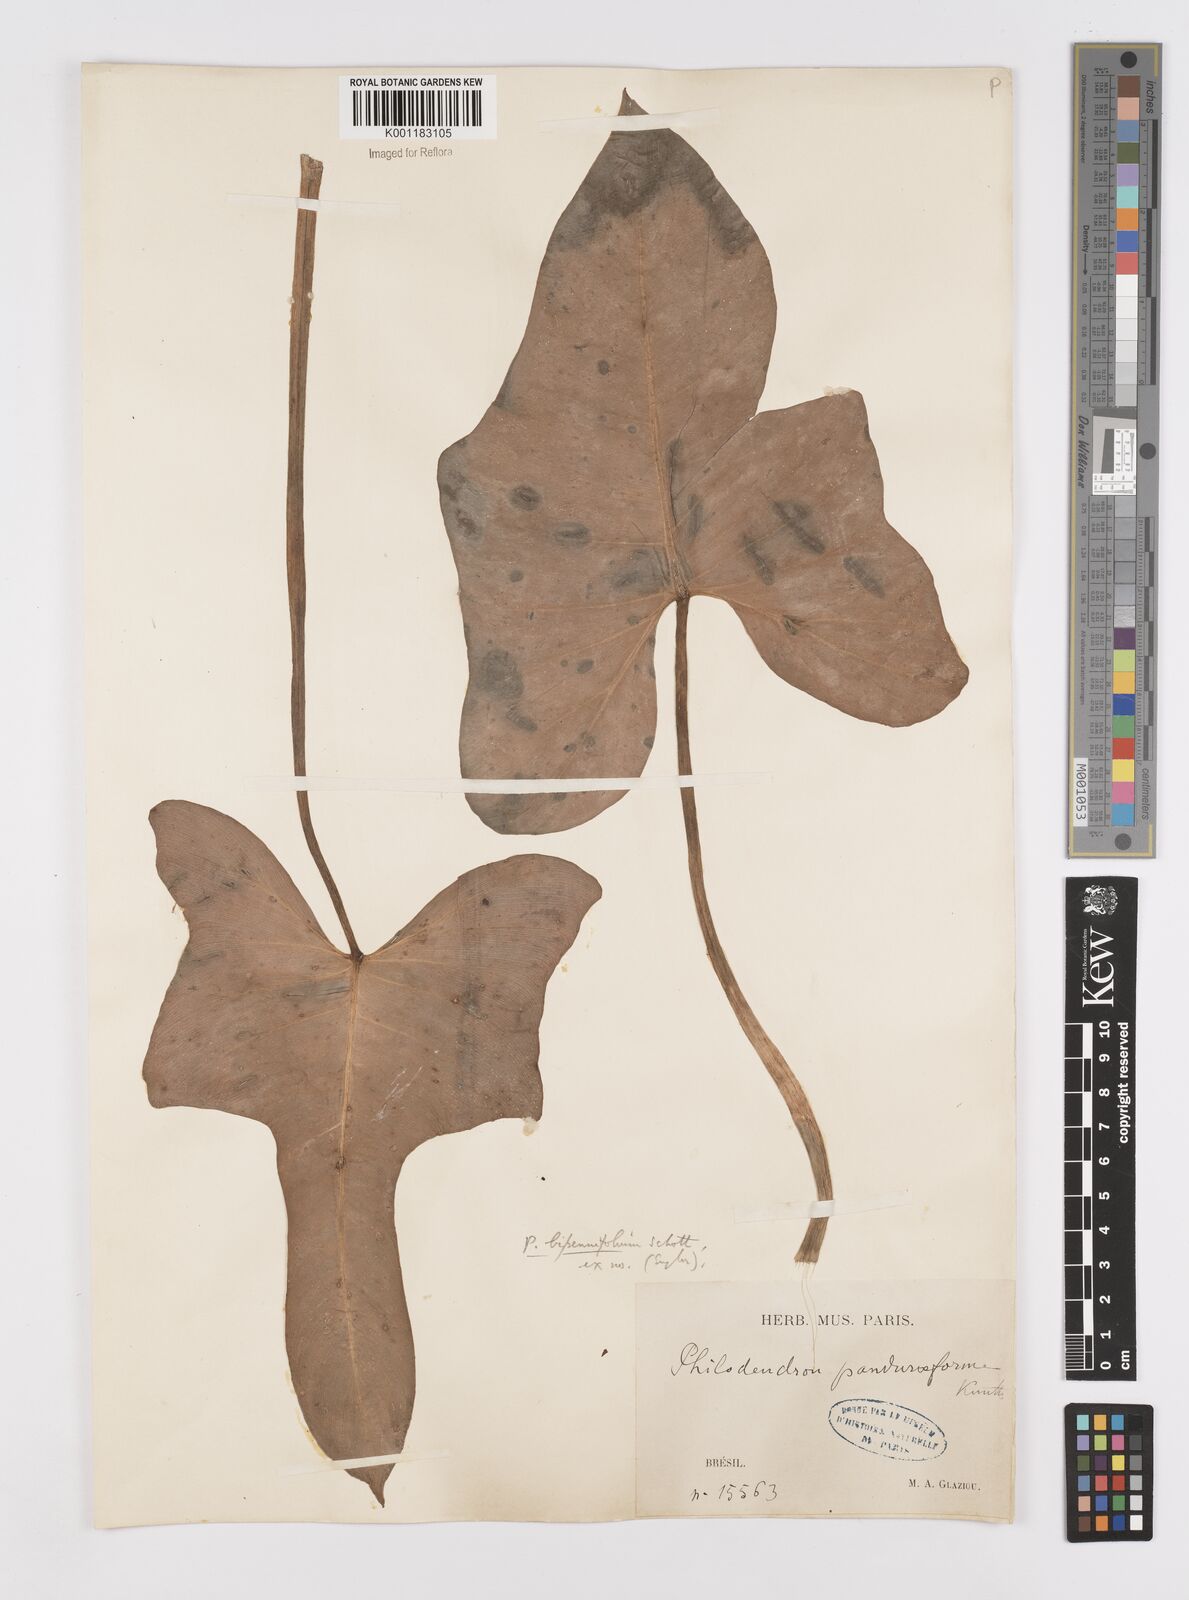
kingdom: Plantae
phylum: Tracheophyta
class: Liliopsida
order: Alismatales
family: Araceae
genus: Philodendron
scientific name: Philodendron bipennifolium
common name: Fiddle-leaf philodendron
